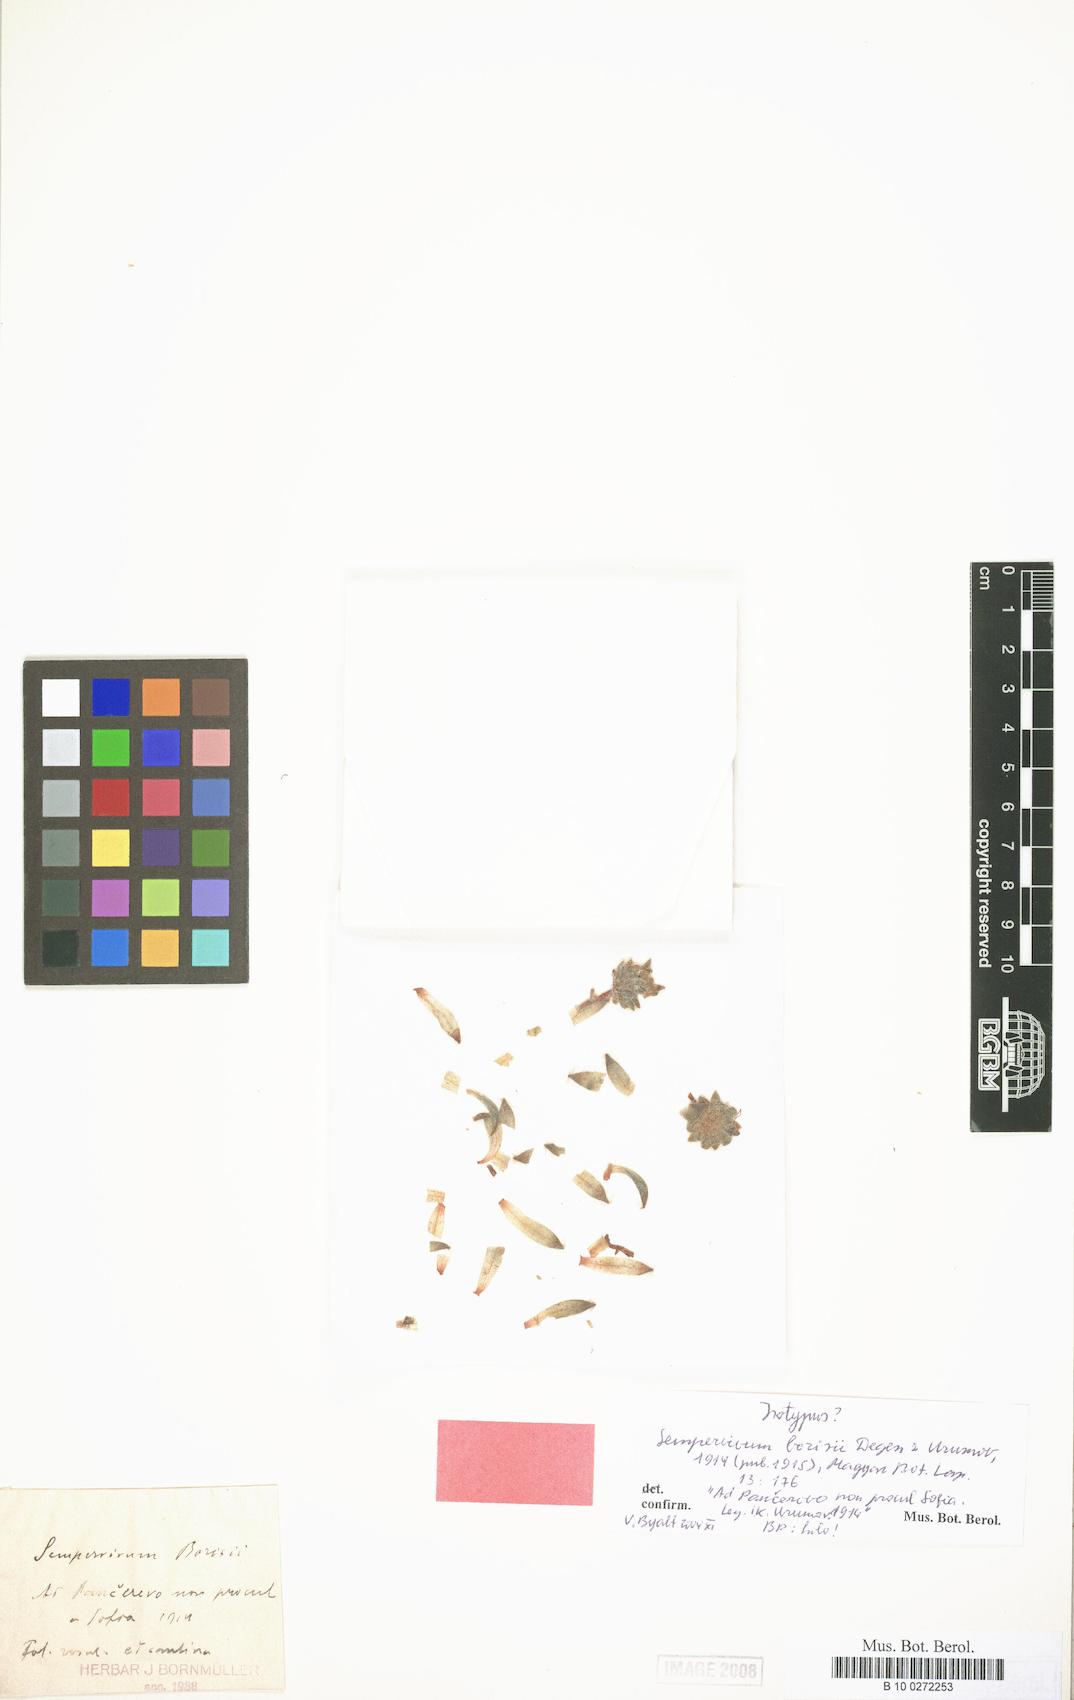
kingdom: Plantae
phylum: Tracheophyta
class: Magnoliopsida
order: Saxifragales
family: Crassulaceae
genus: Sempervivum
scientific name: Sempervivum ciliosum
